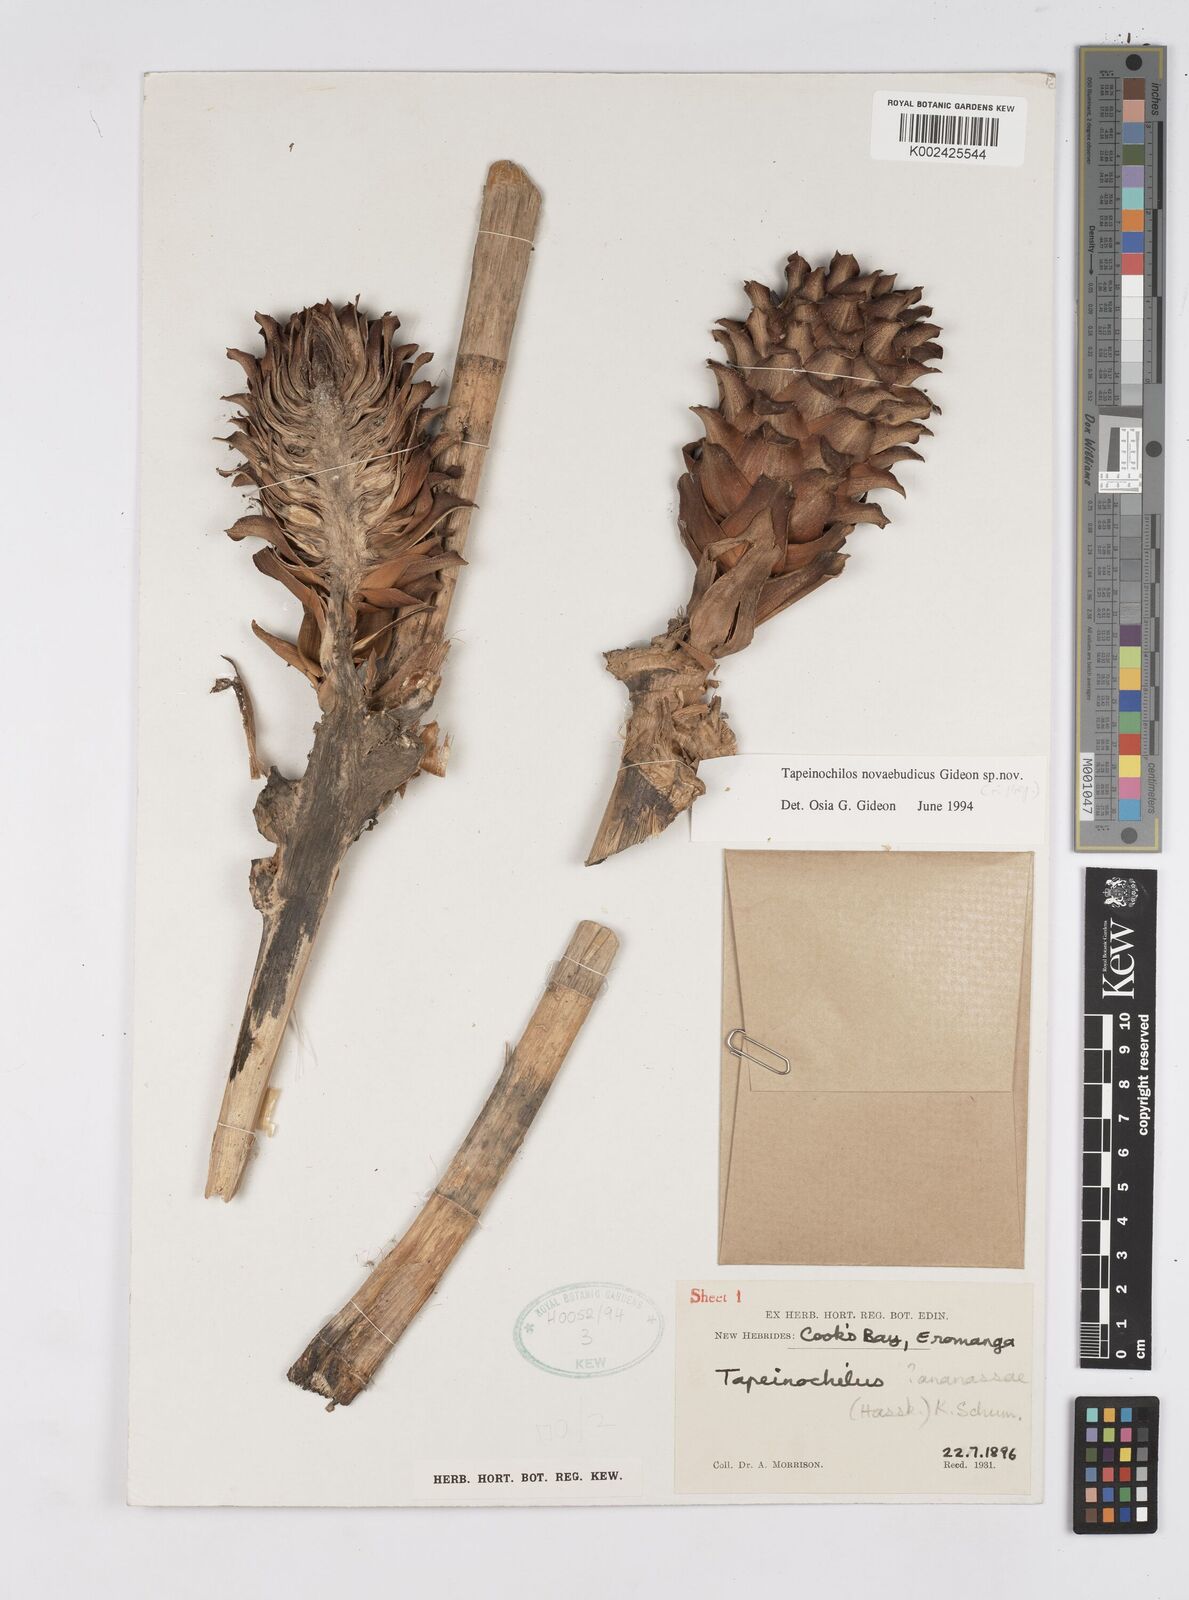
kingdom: Plantae
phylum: Tracheophyta
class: Liliopsida
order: Zingiberales
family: Costaceae
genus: Tapeinochilos
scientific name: Tapeinochilos
